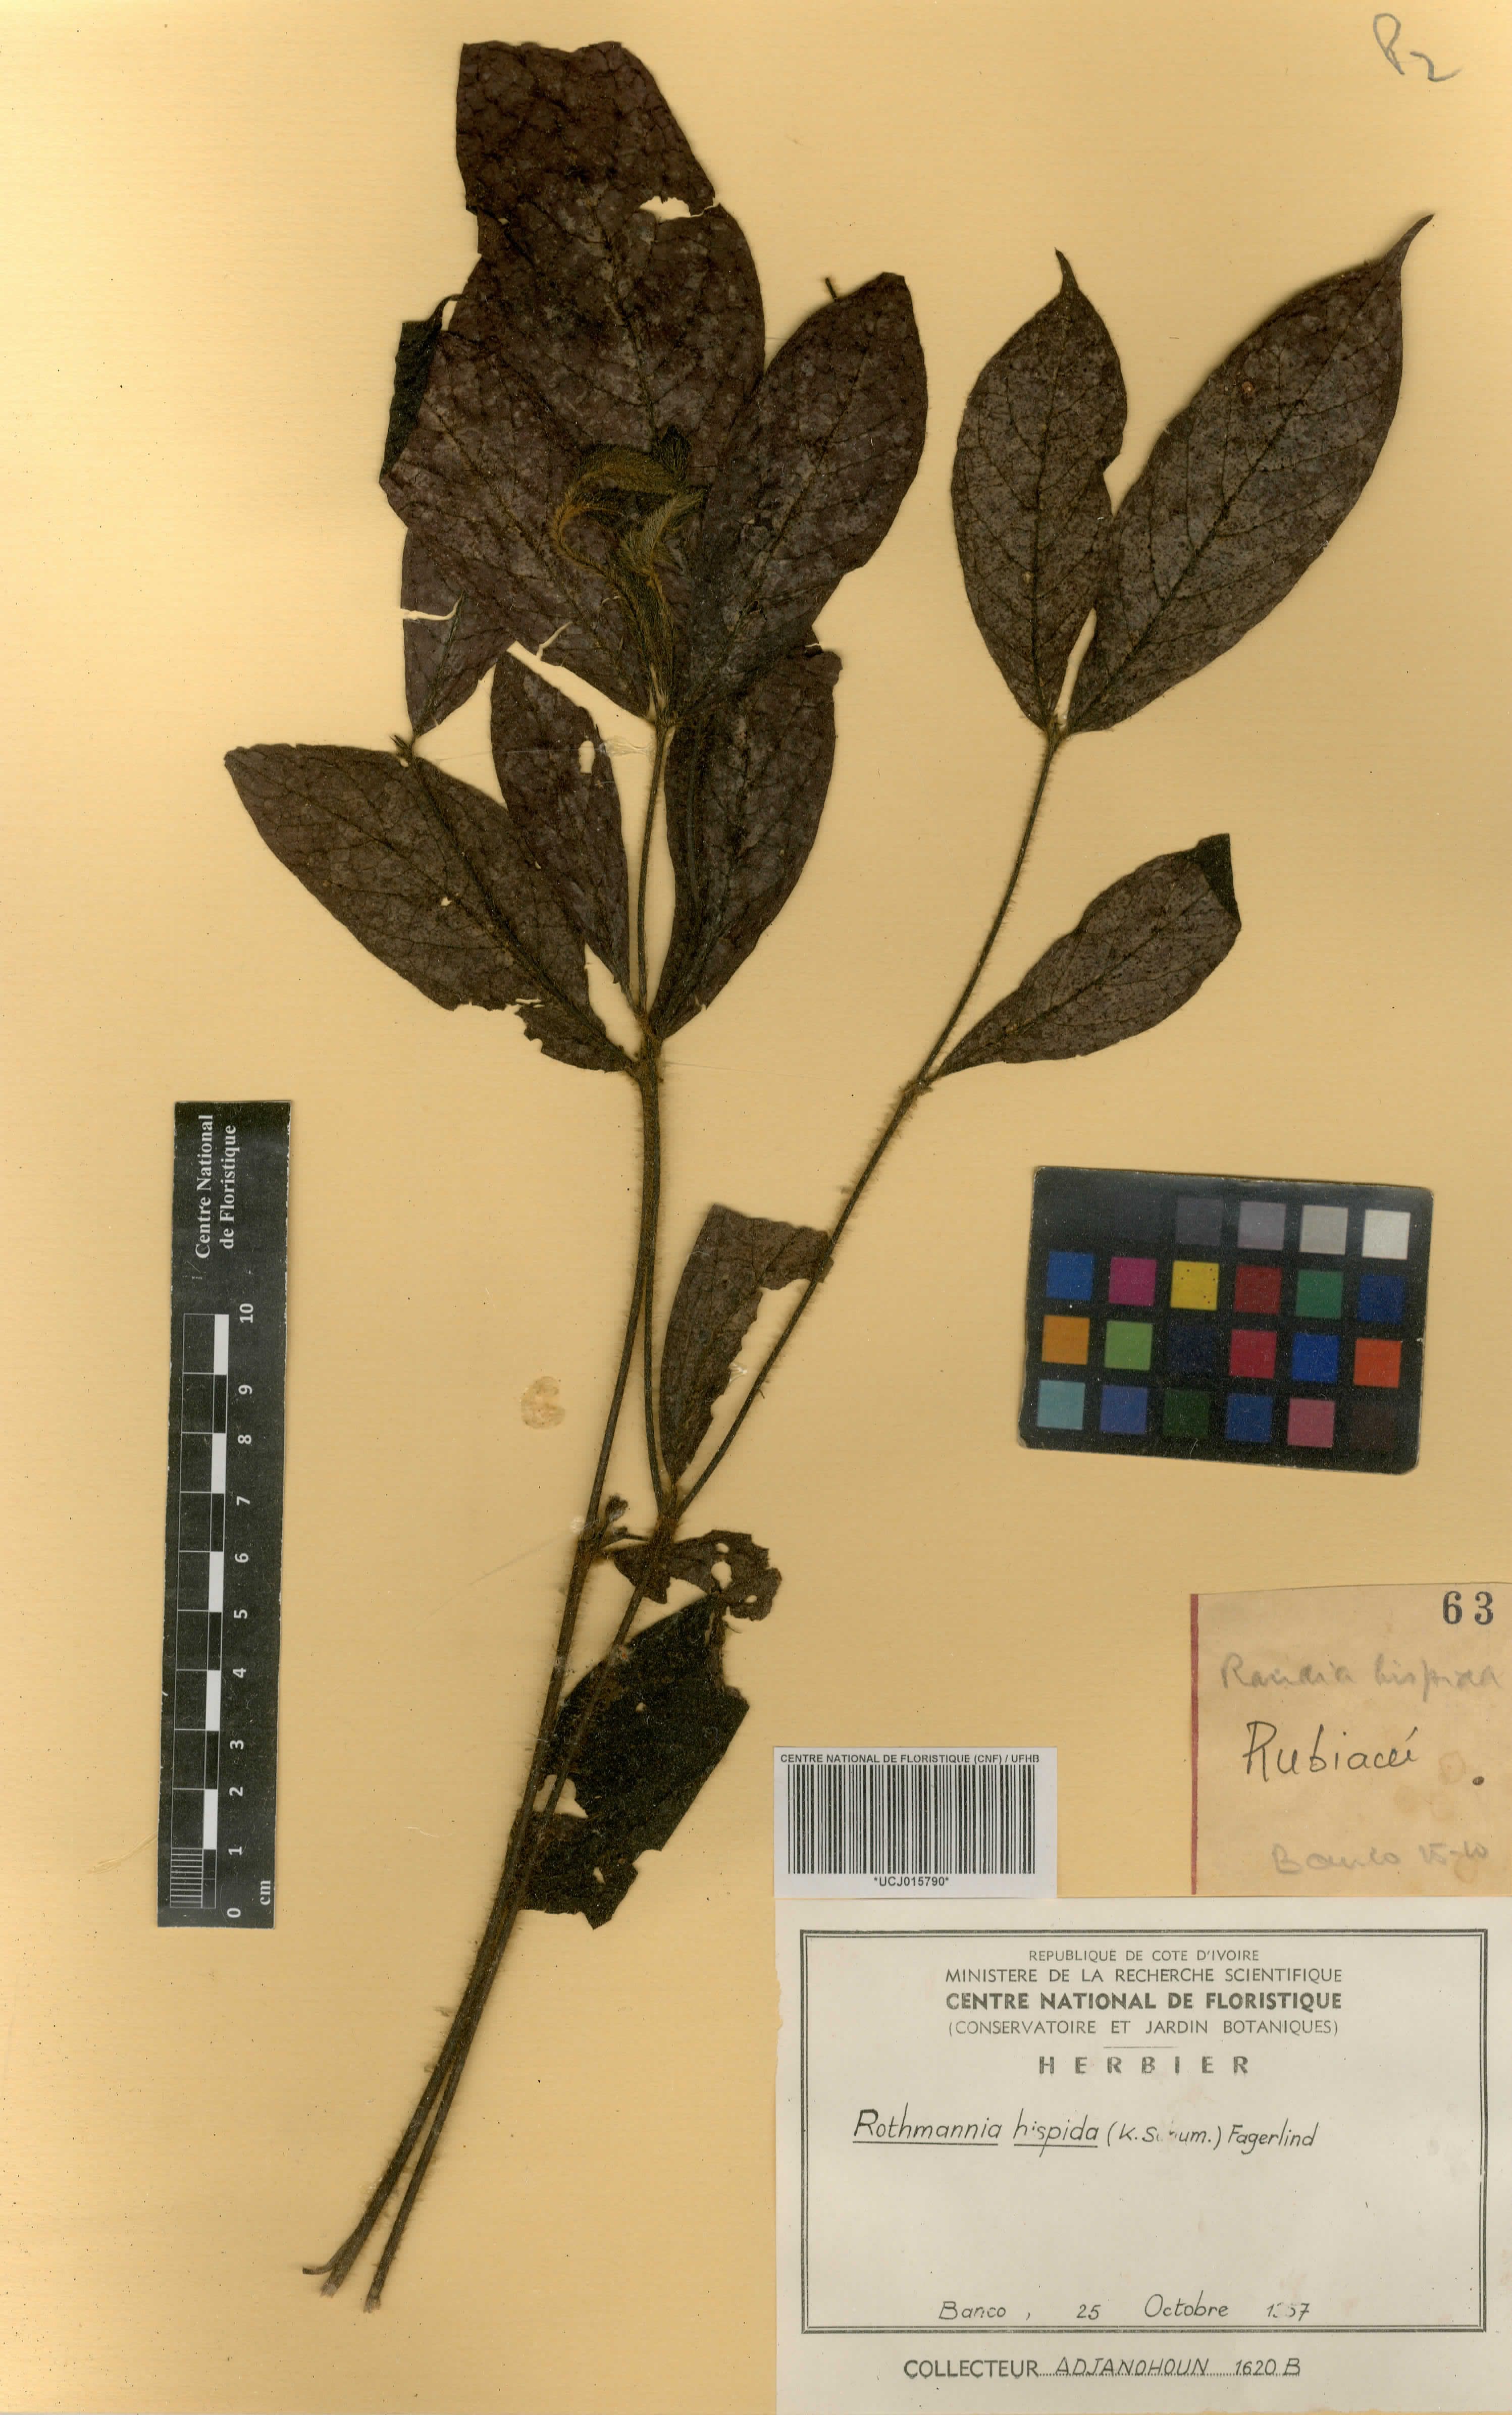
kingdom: Plantae
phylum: Tracheophyta
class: Magnoliopsida
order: Gentianales
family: Rubiaceae
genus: Rothmannia
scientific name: Rothmannia hispida
